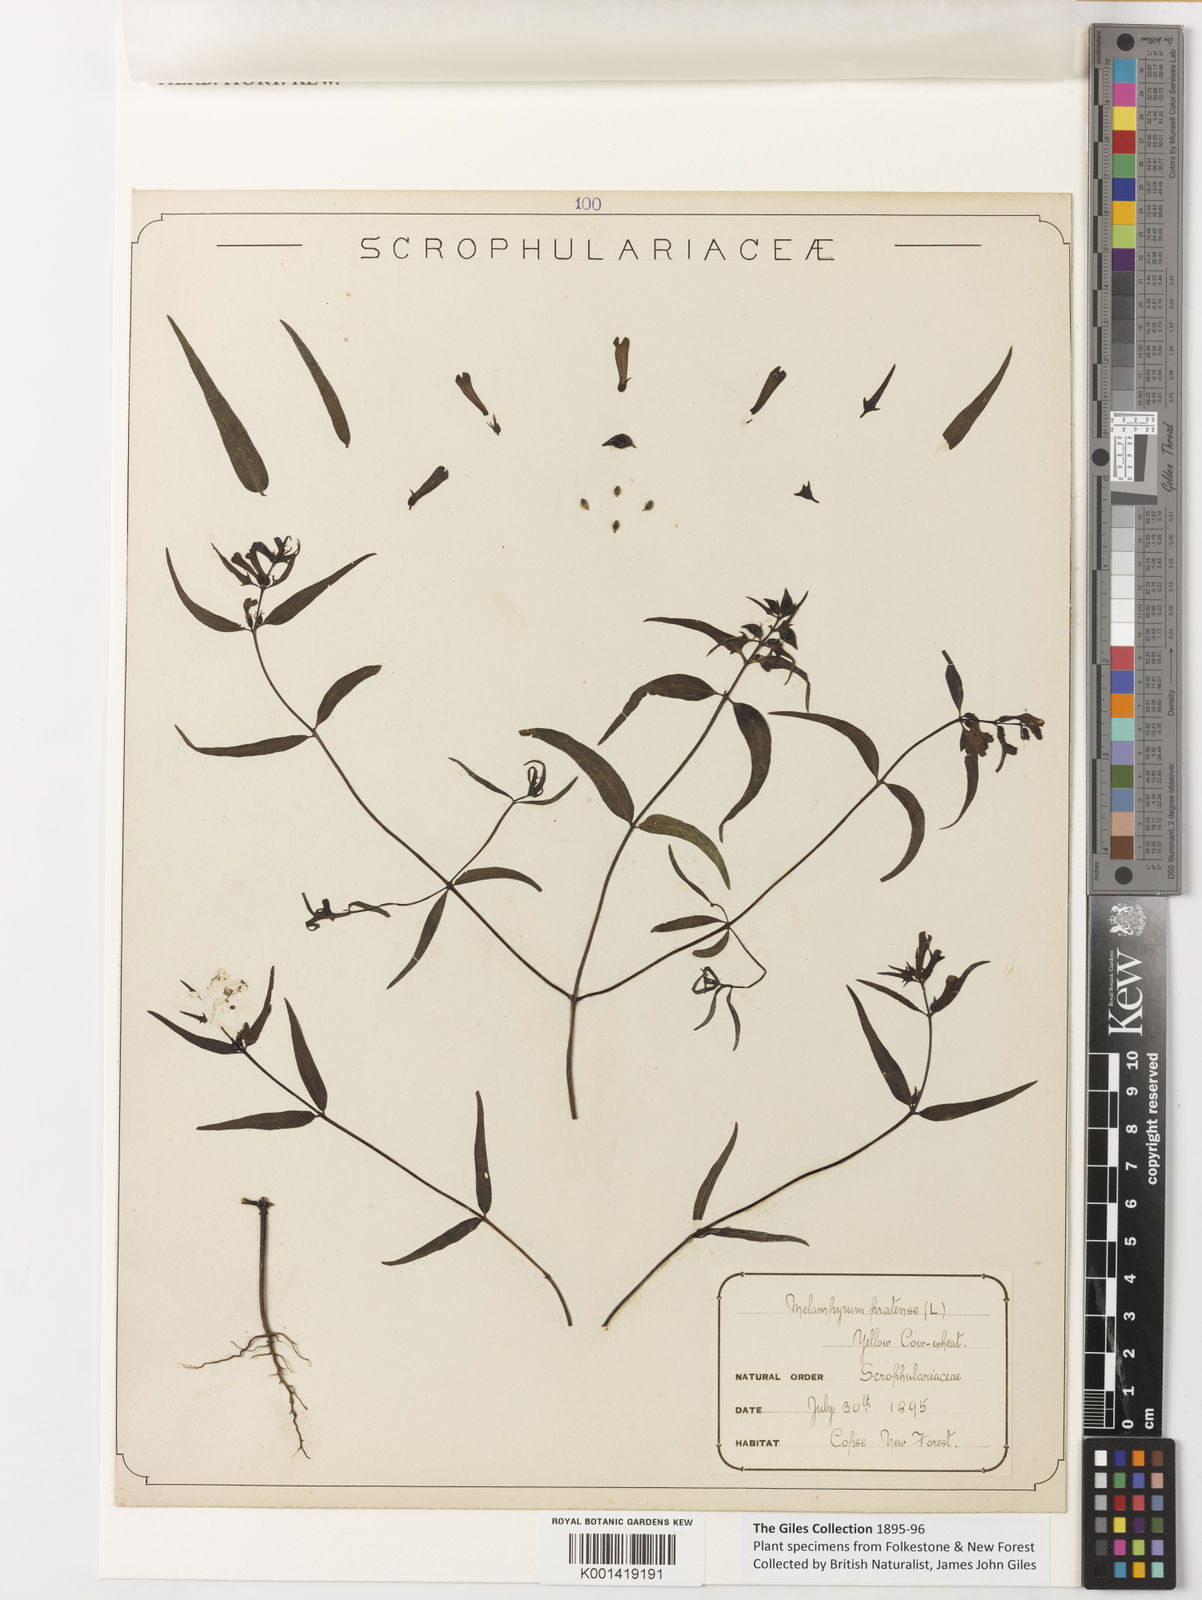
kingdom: Plantae
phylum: Tracheophyta
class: Magnoliopsida
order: Lamiales
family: Orobanchaceae
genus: Melampyrum
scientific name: Melampyrum pratense
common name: Common cow-wheat
